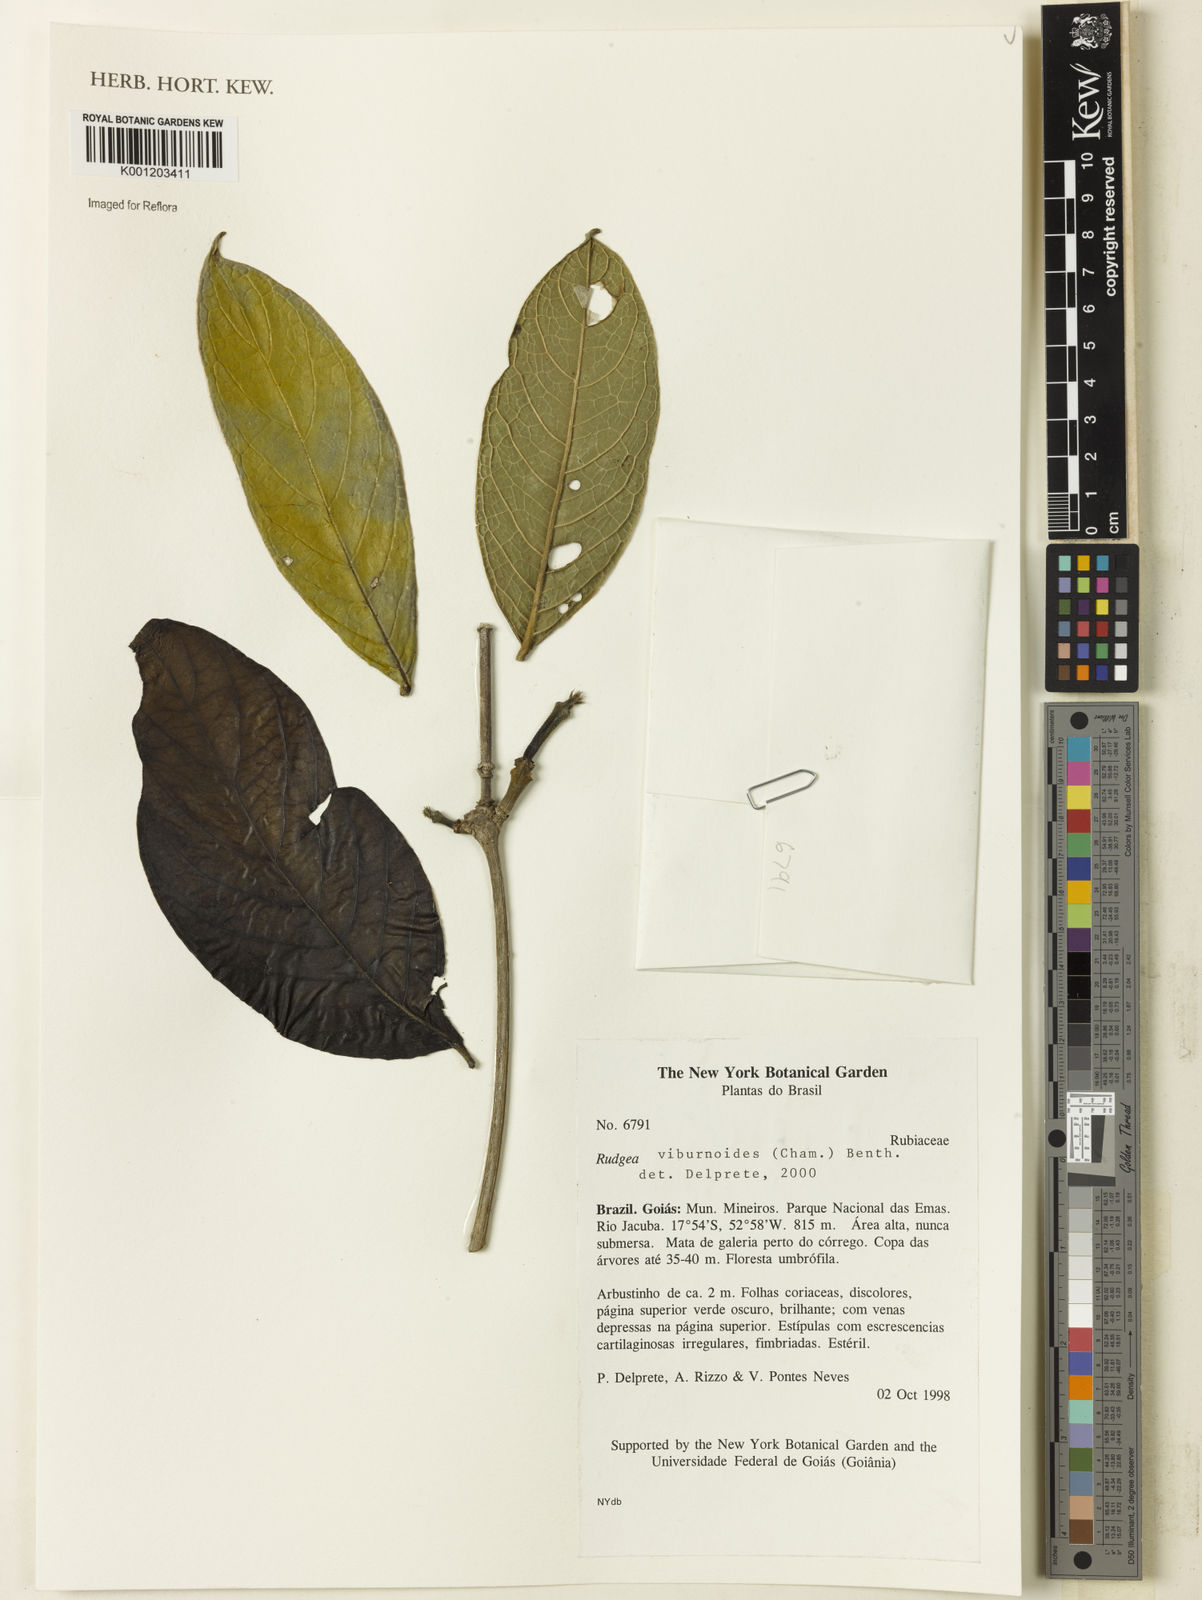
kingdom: Plantae
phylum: Tracheophyta
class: Magnoliopsida
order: Gentianales
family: Rubiaceae
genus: Rudgea
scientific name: Rudgea viburnoides
